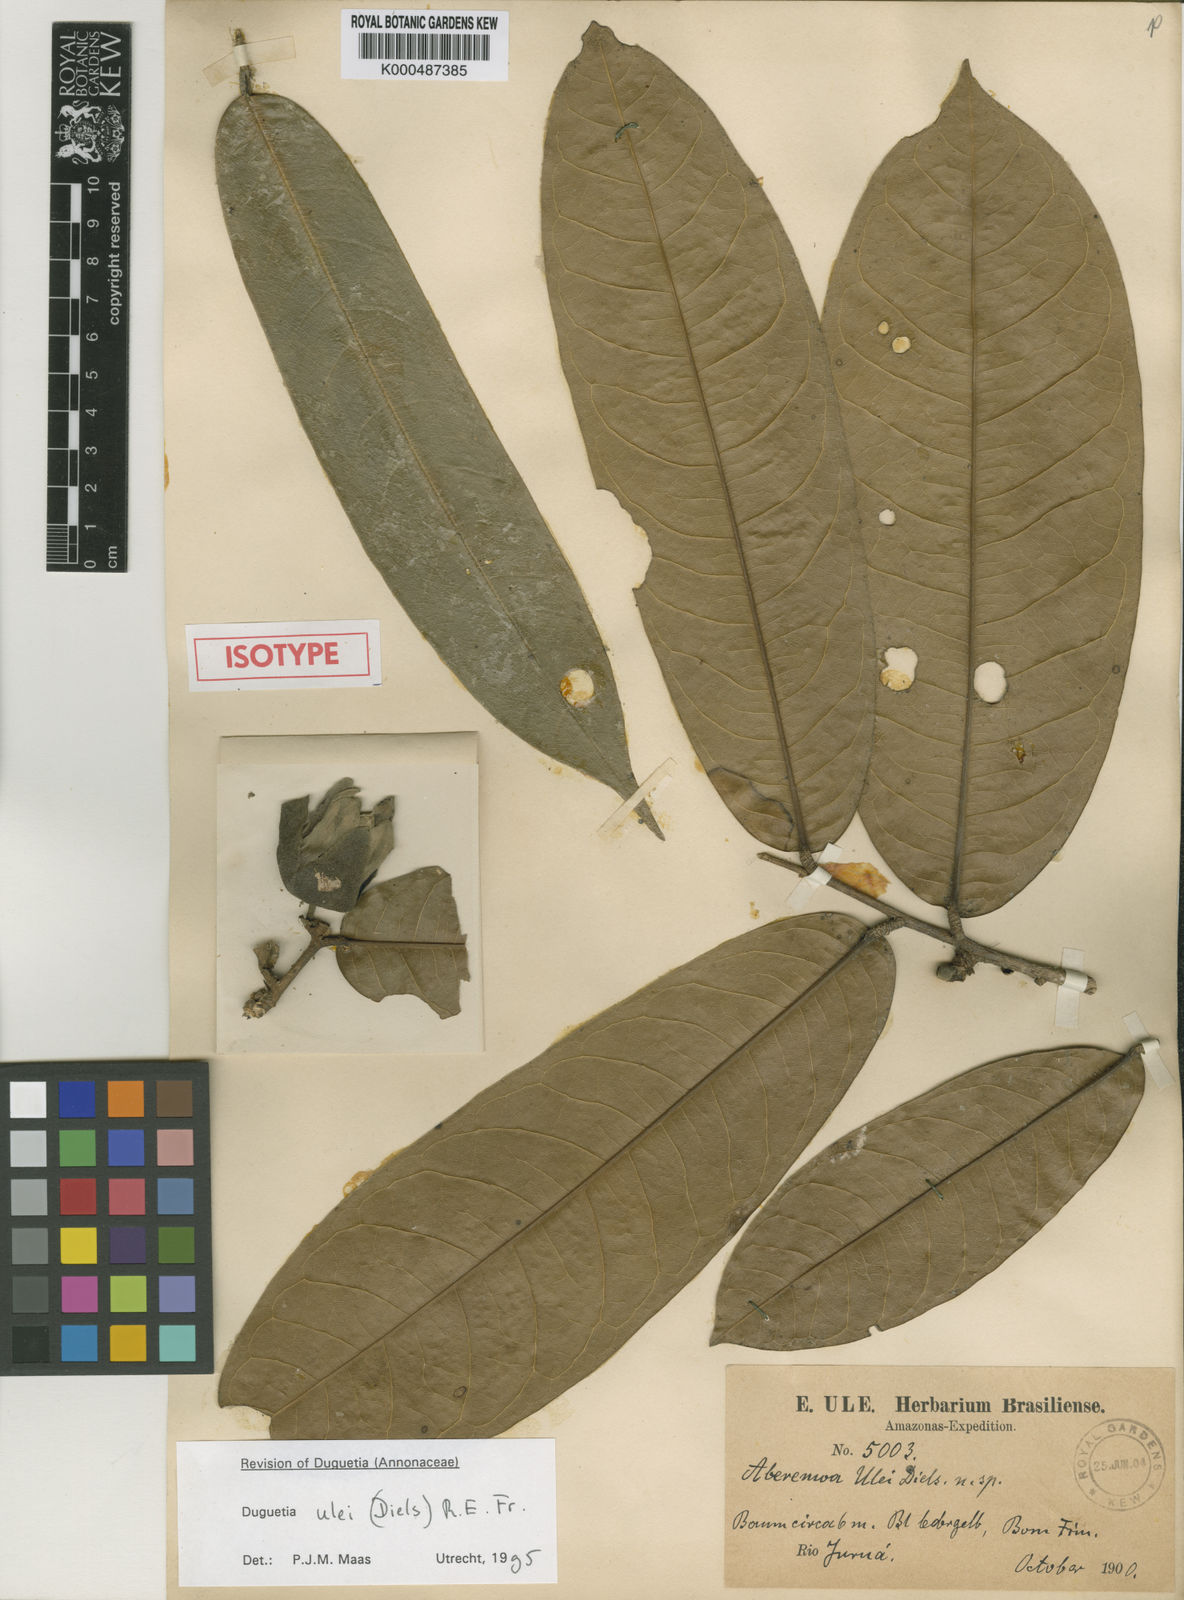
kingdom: Plantae
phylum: Tracheophyta
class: Magnoliopsida
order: Magnoliales
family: Annonaceae
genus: Duguetia
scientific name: Duguetia ulei
